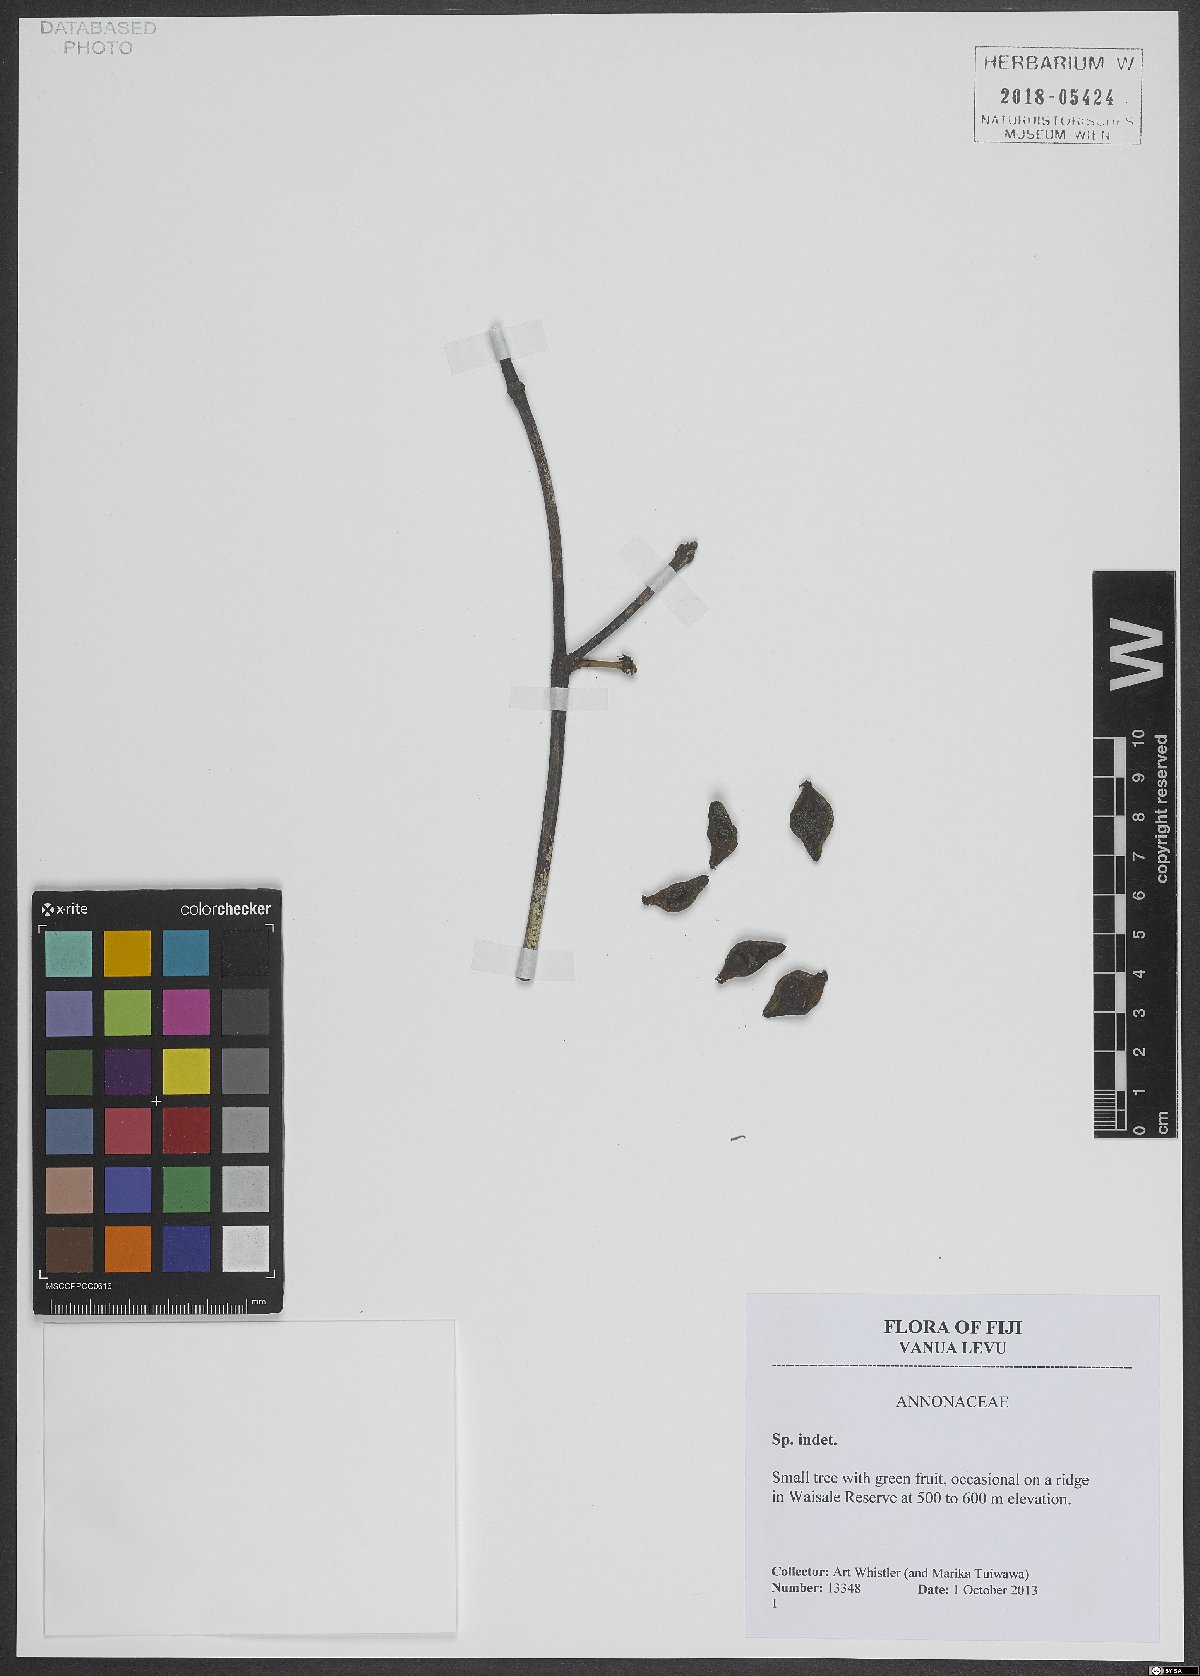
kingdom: Plantae
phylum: Tracheophyta
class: Magnoliopsida
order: Magnoliales
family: Annonaceae
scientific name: Annonaceae
